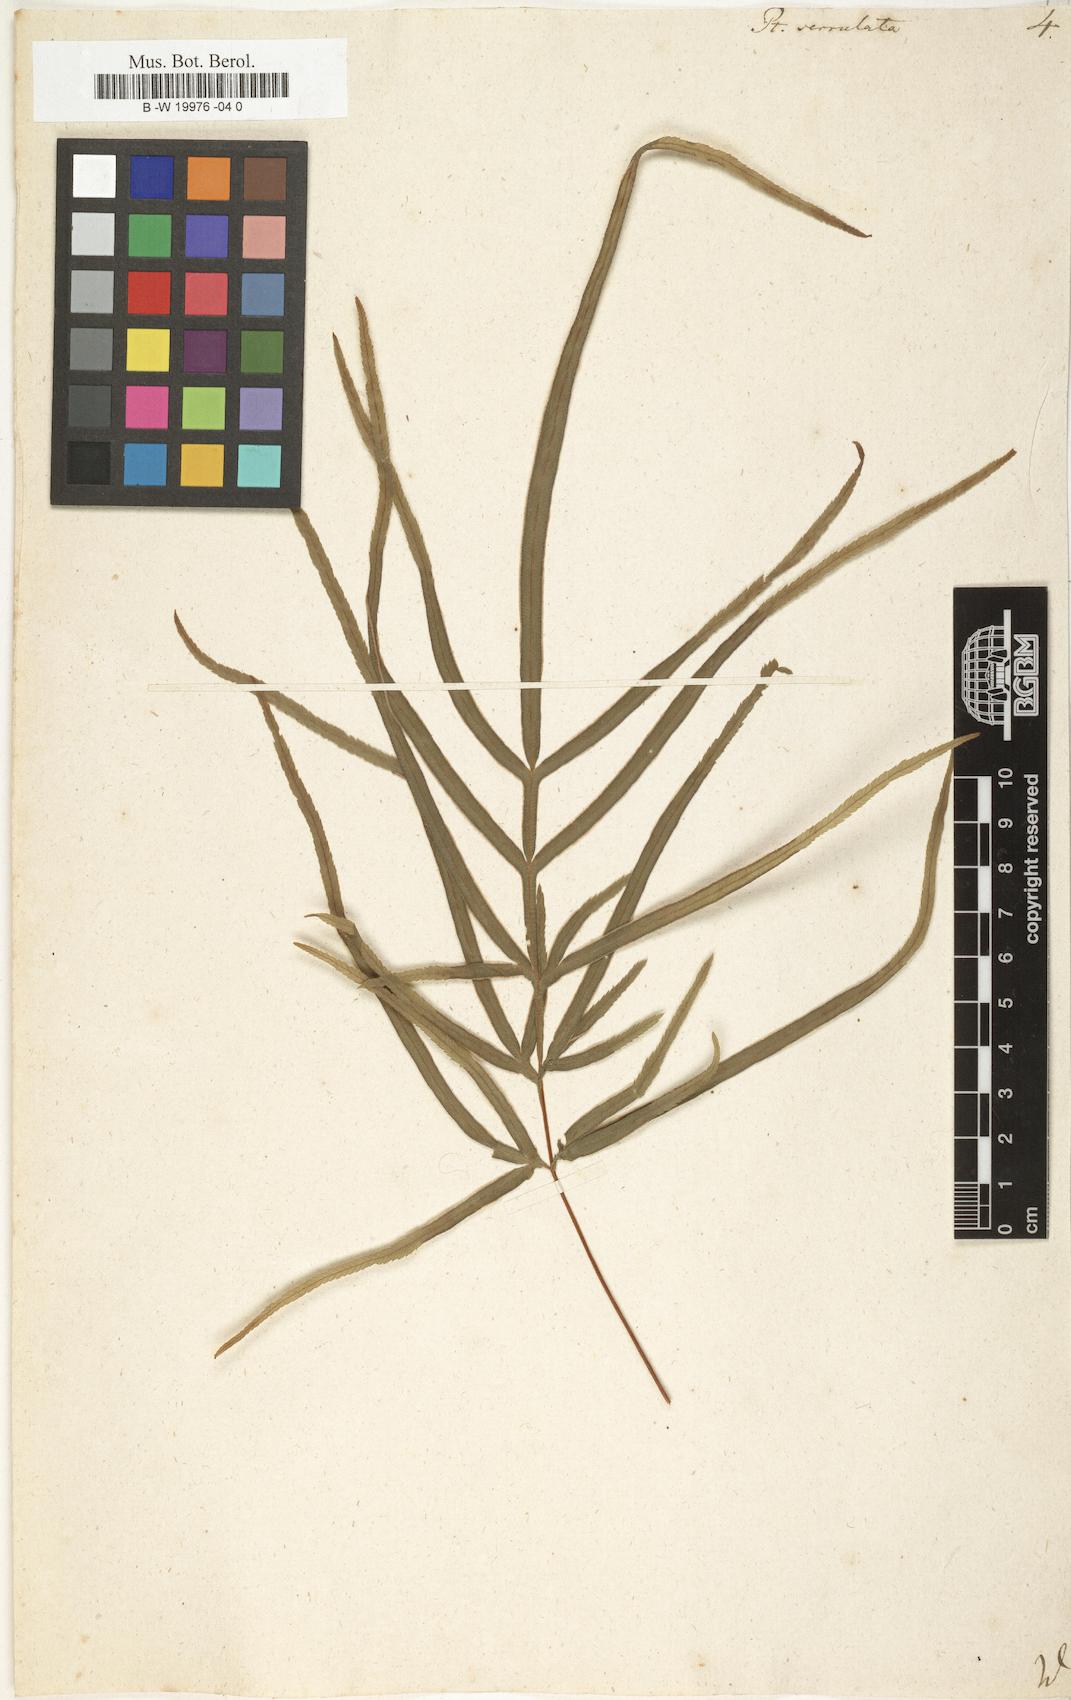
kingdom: Plantae
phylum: Tracheophyta
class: Polypodiopsida
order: Polypodiales
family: Pteridaceae
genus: Pteris
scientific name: Pteris
